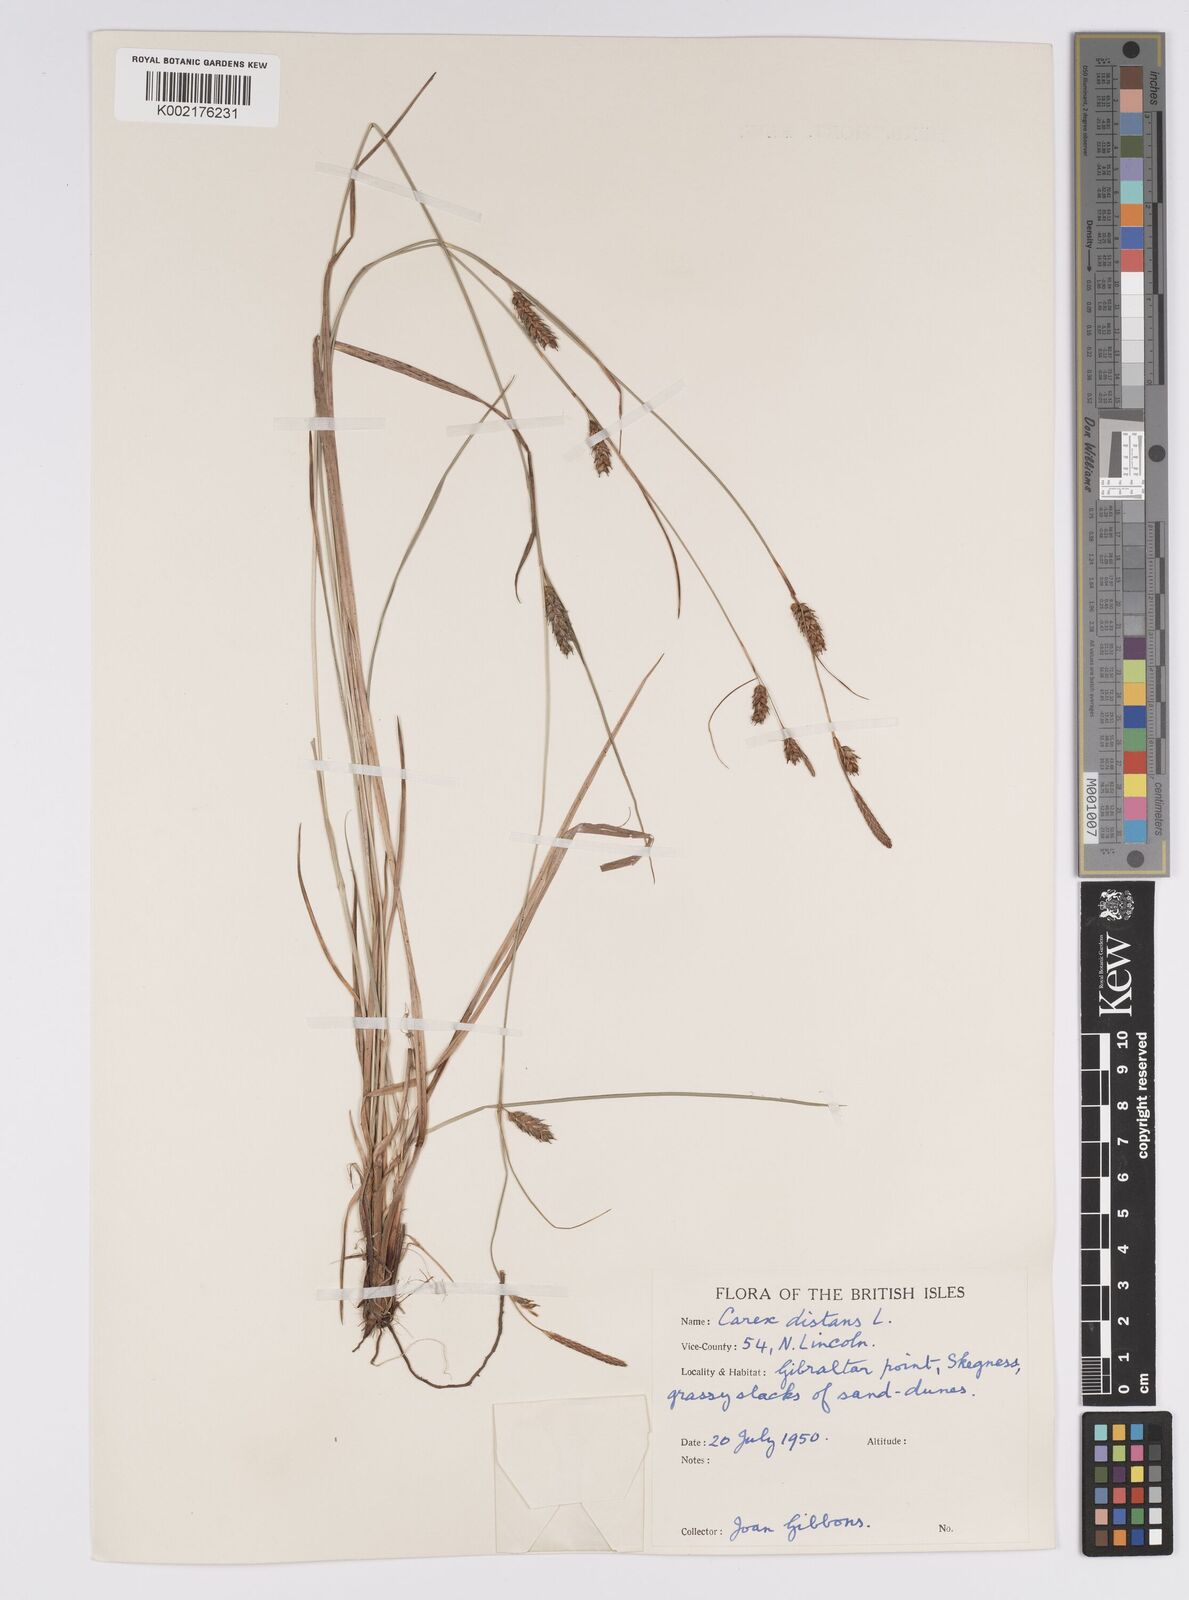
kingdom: Plantae
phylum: Tracheophyta
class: Liliopsida
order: Poales
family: Cyperaceae
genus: Carex
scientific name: Carex distans
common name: Distant sedge
